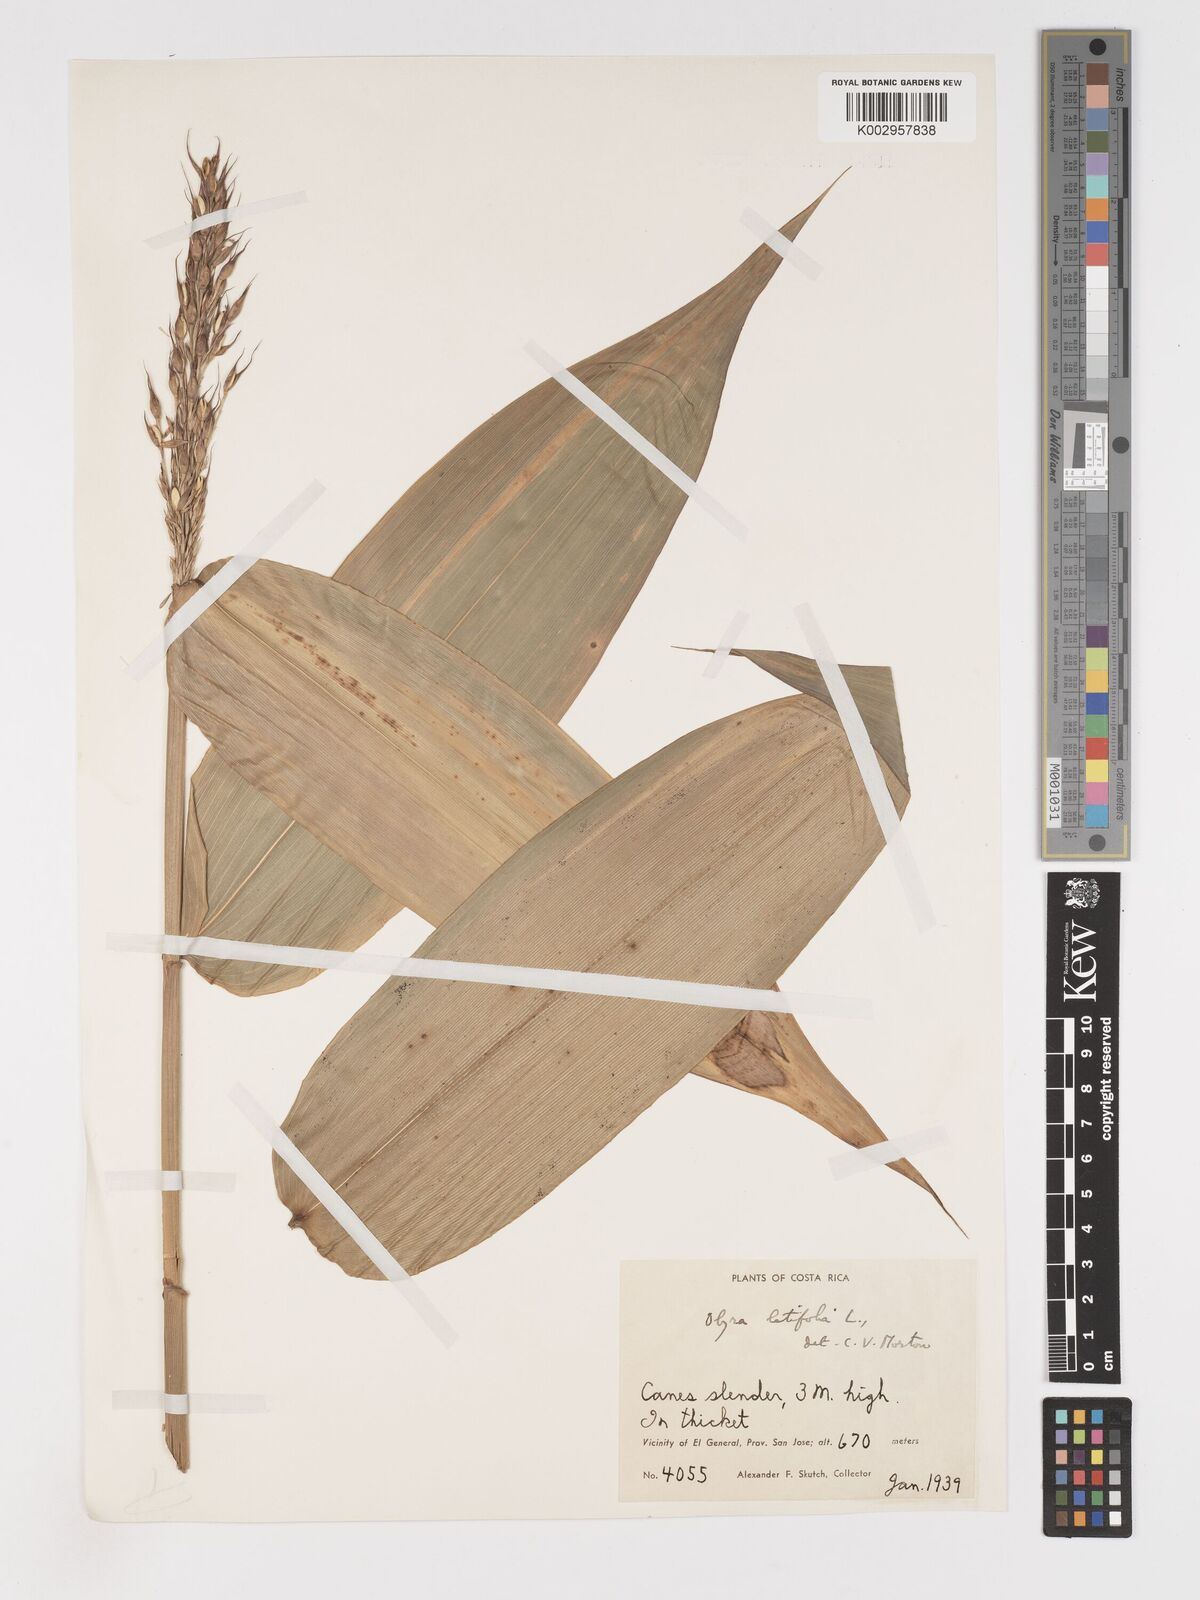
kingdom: Plantae
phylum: Tracheophyta
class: Liliopsida
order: Poales
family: Poaceae
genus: Olyra
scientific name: Olyra latifolia
